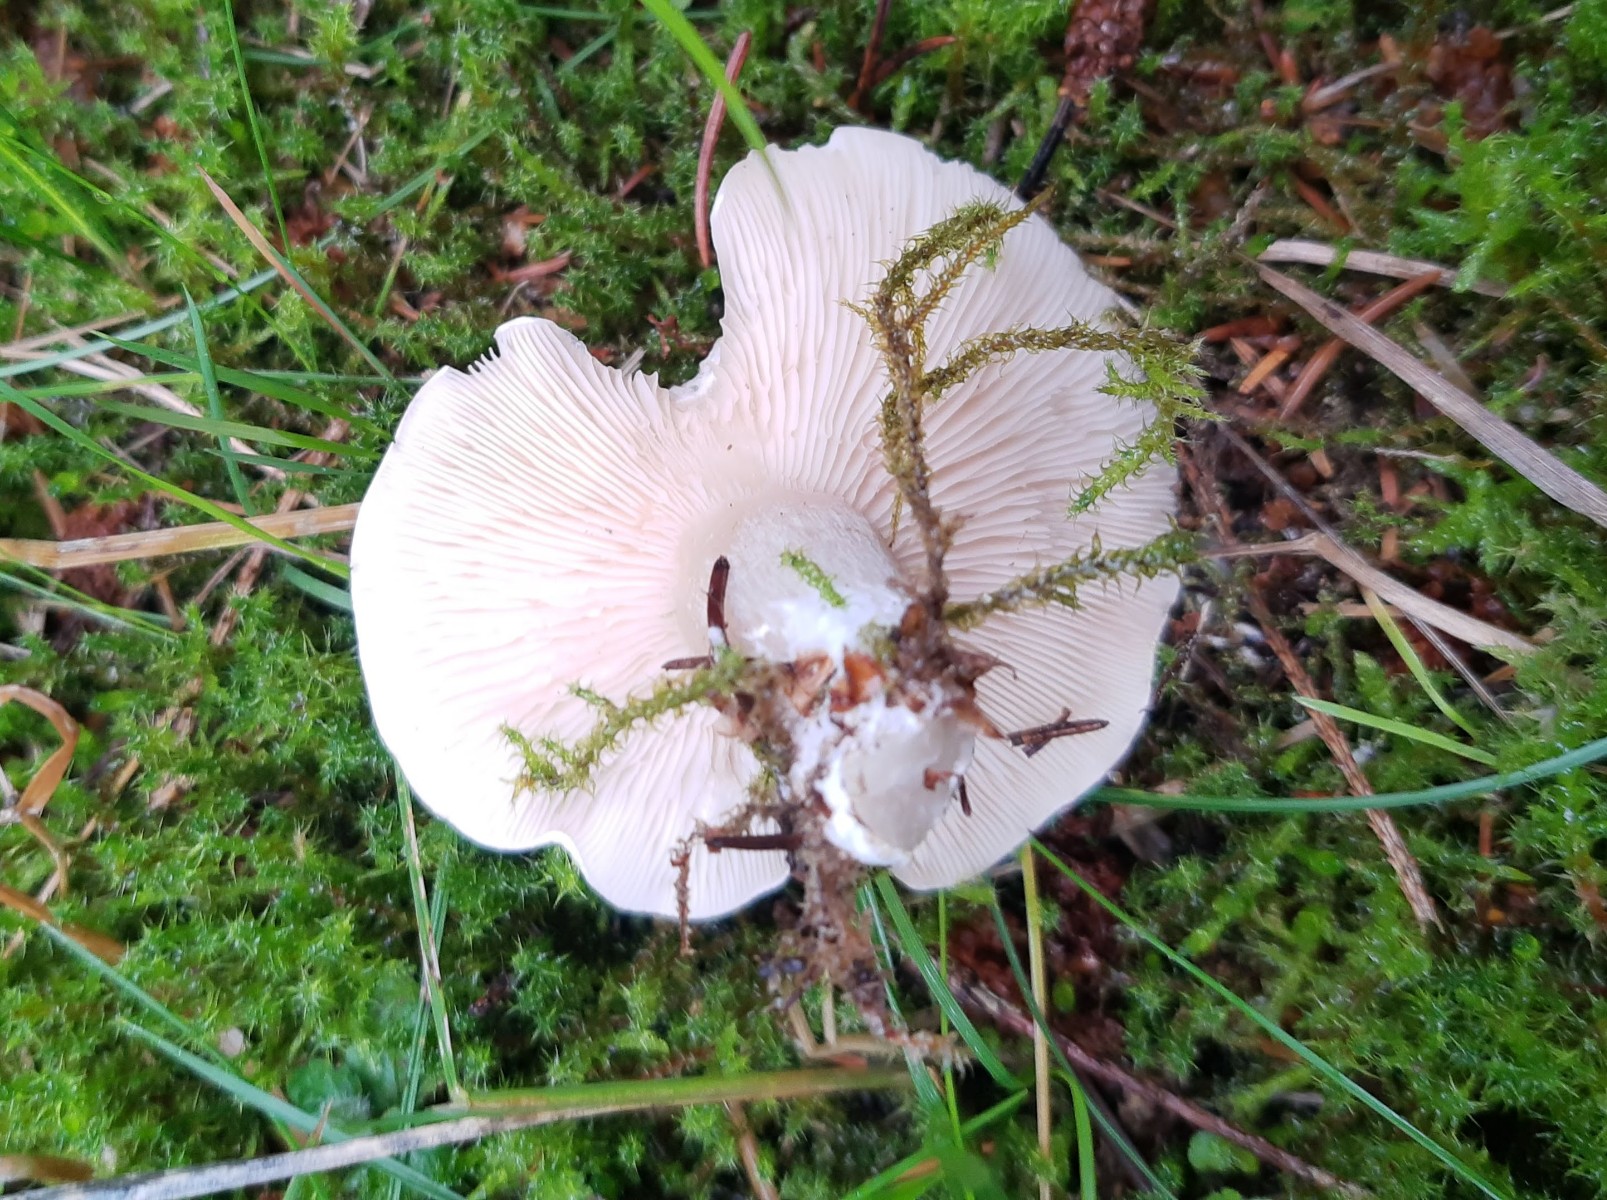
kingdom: Fungi
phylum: Basidiomycota
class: Agaricomycetes
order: Agaricales
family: Entolomataceae
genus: Clitopilus
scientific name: Clitopilus prunulus
